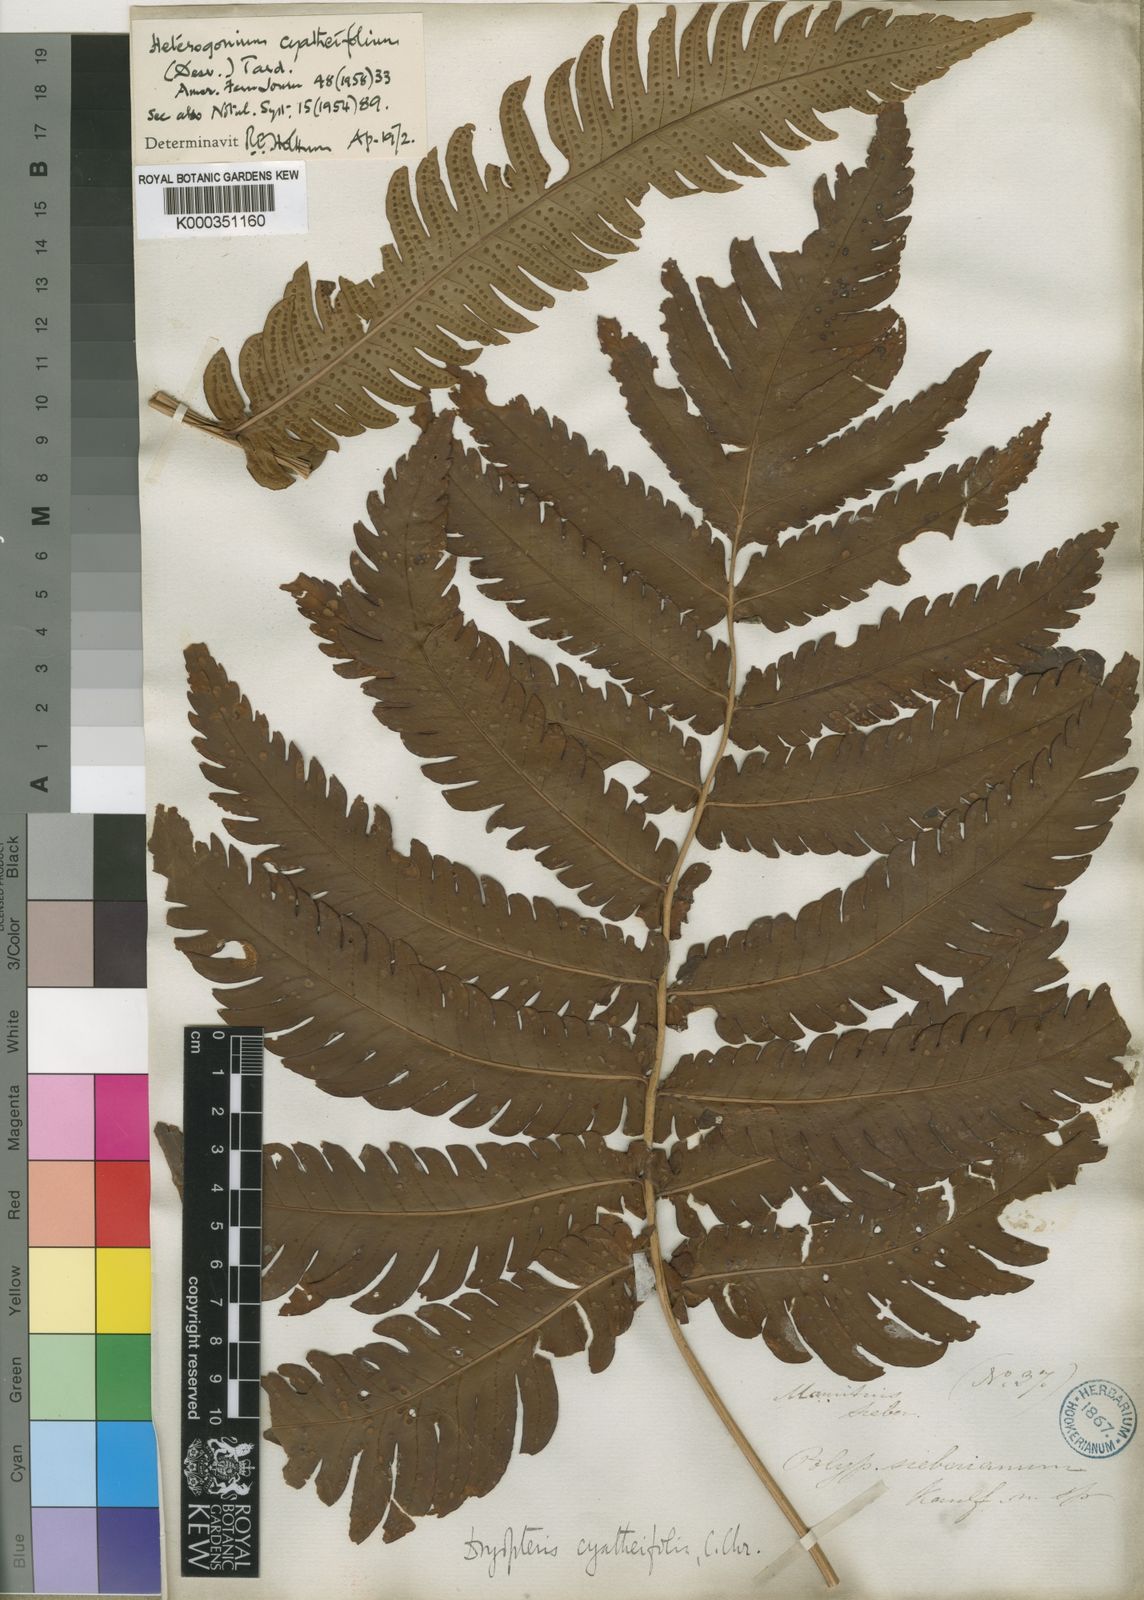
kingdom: Plantae
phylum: Tracheophyta
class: Polypodiopsida
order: Polypodiales
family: Dryopteridaceae
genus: Ctenitis
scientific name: Ctenitis sieberiana
